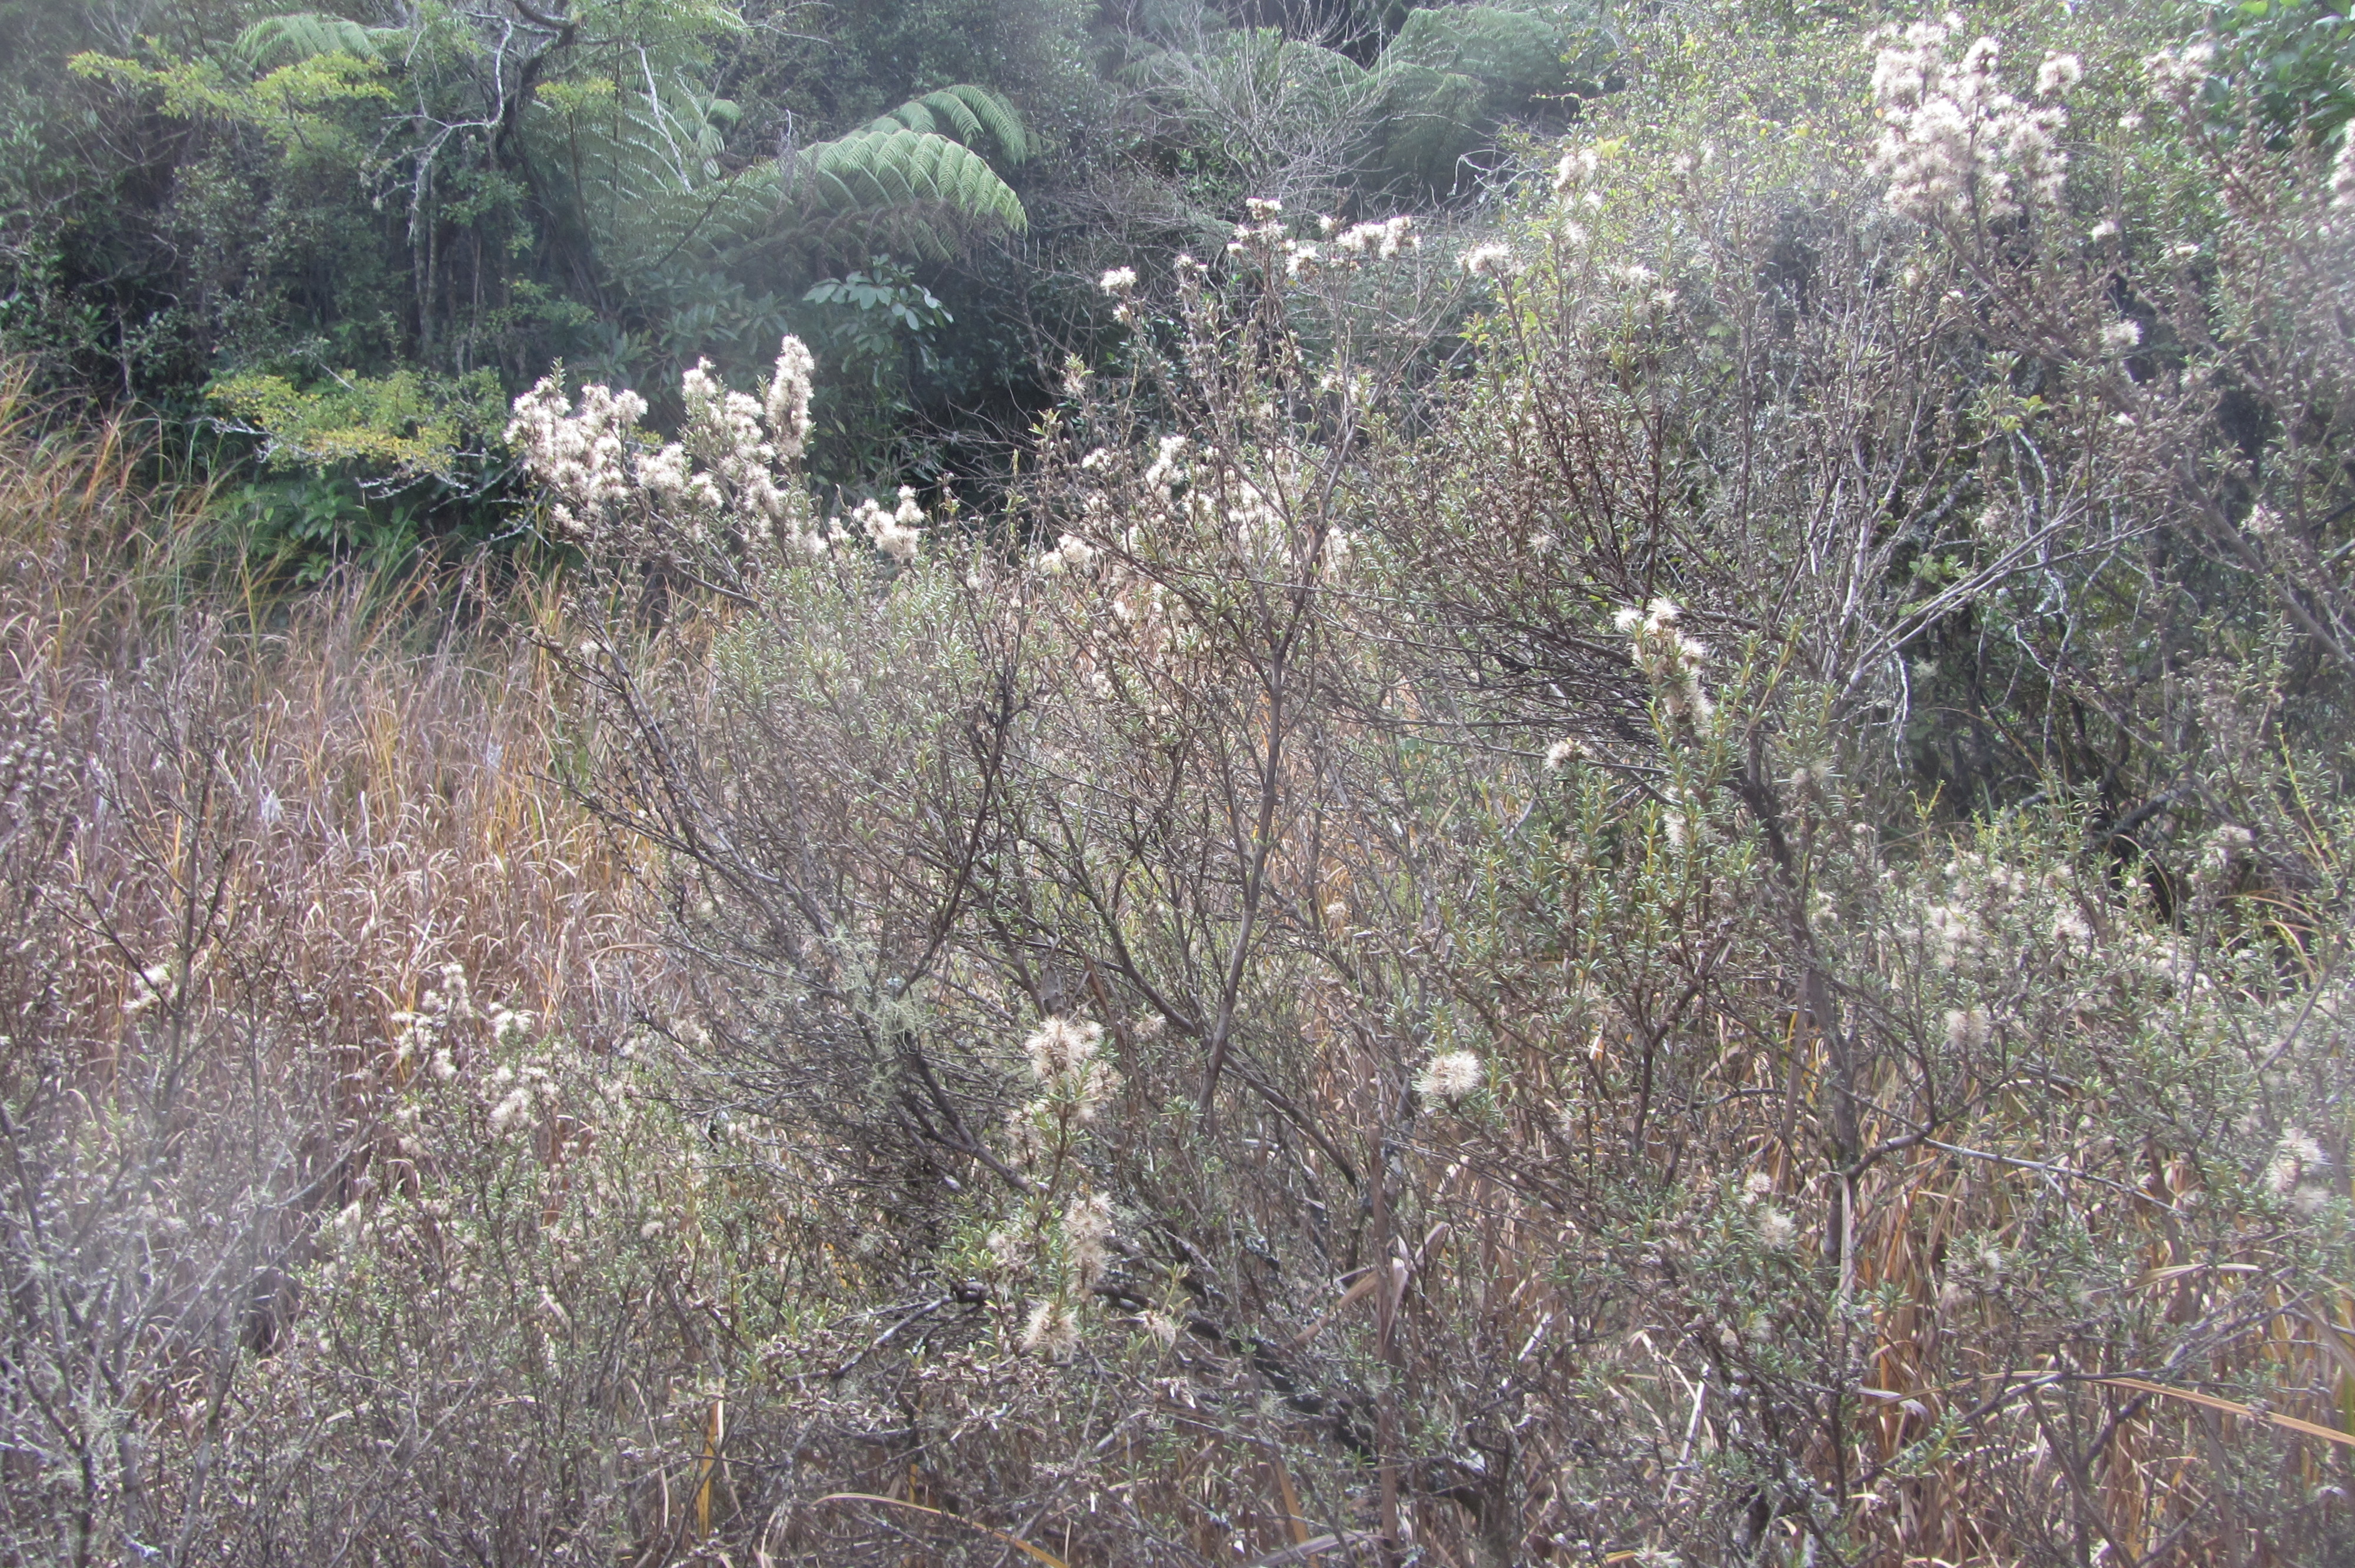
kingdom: Plantae
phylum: Tracheophyta
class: Magnoliopsida
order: Asterales
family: Asteraceae
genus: Olearia
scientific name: Olearia solandri
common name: Coastal daisybush
